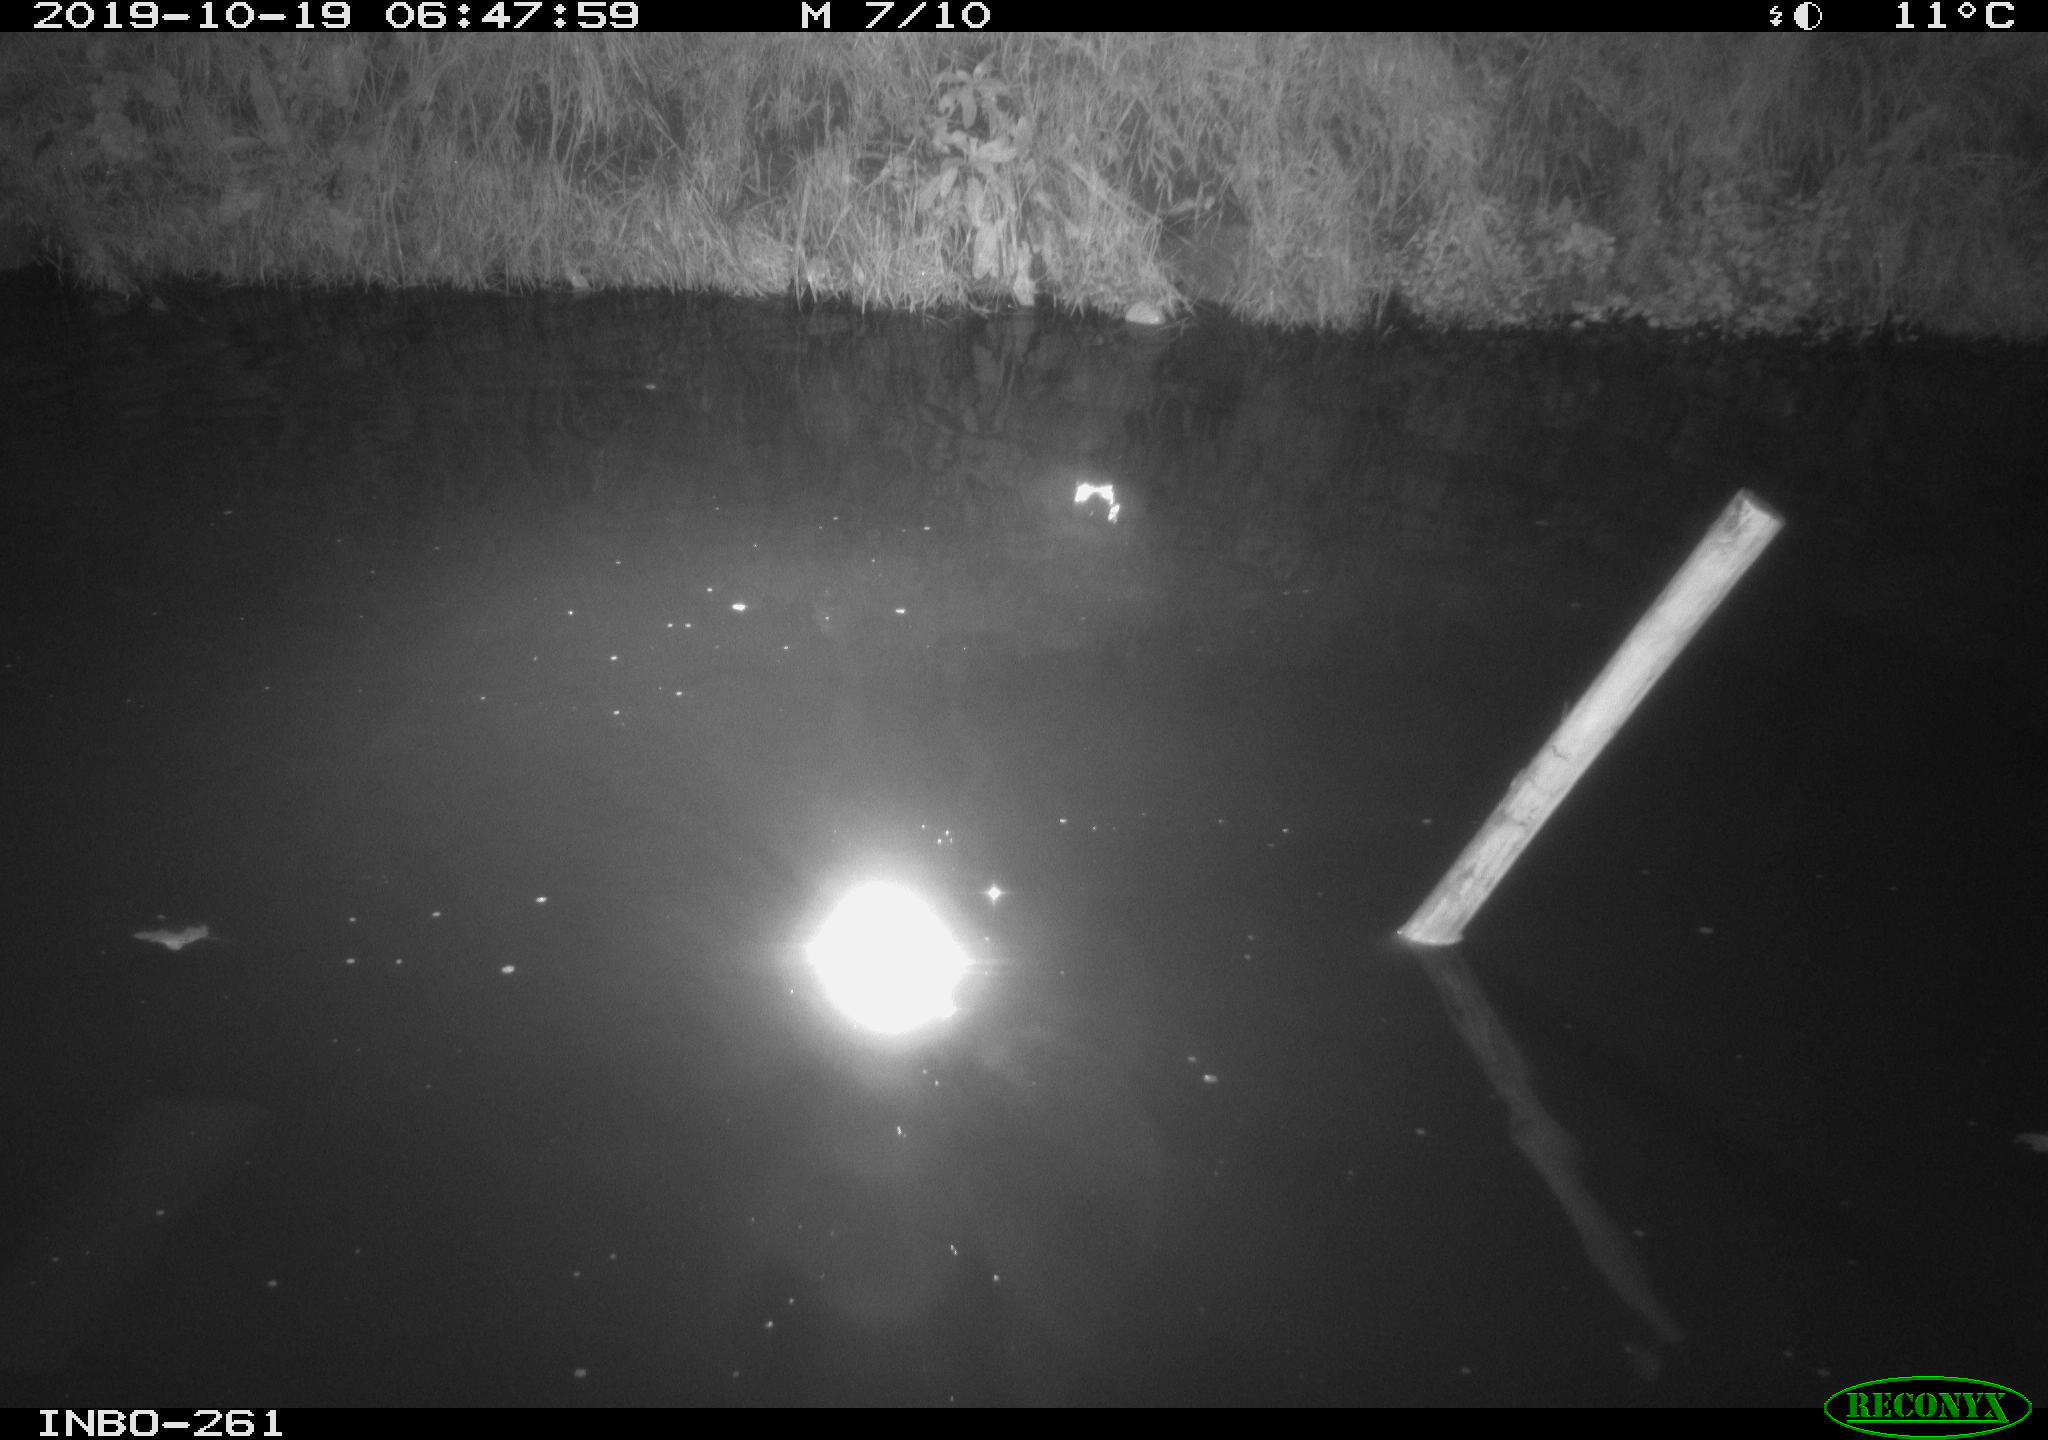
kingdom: Animalia
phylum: Chordata
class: Aves
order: Anseriformes
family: Anatidae
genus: Anas
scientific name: Anas platyrhynchos
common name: Mallard
